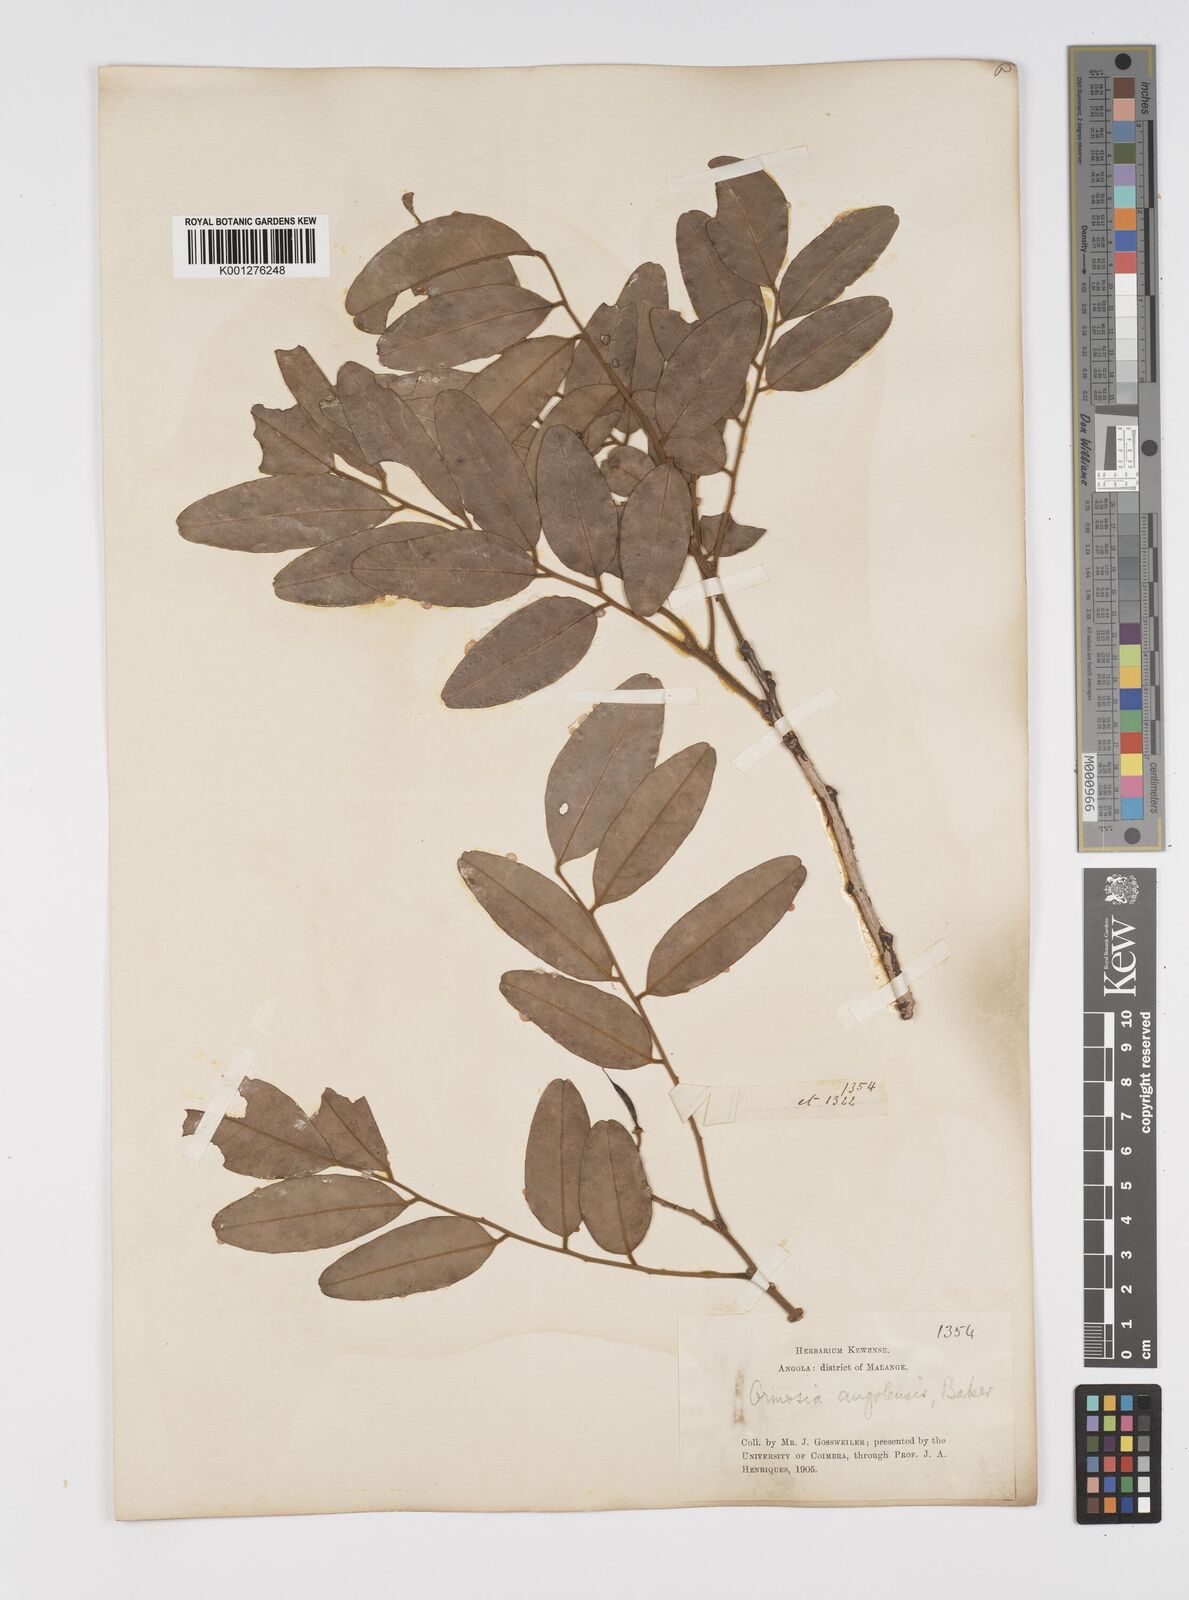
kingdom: Plantae
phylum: Tracheophyta
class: Magnoliopsida
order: Fabales
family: Fabaceae
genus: Pericopsis
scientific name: Pericopsis angolensis
